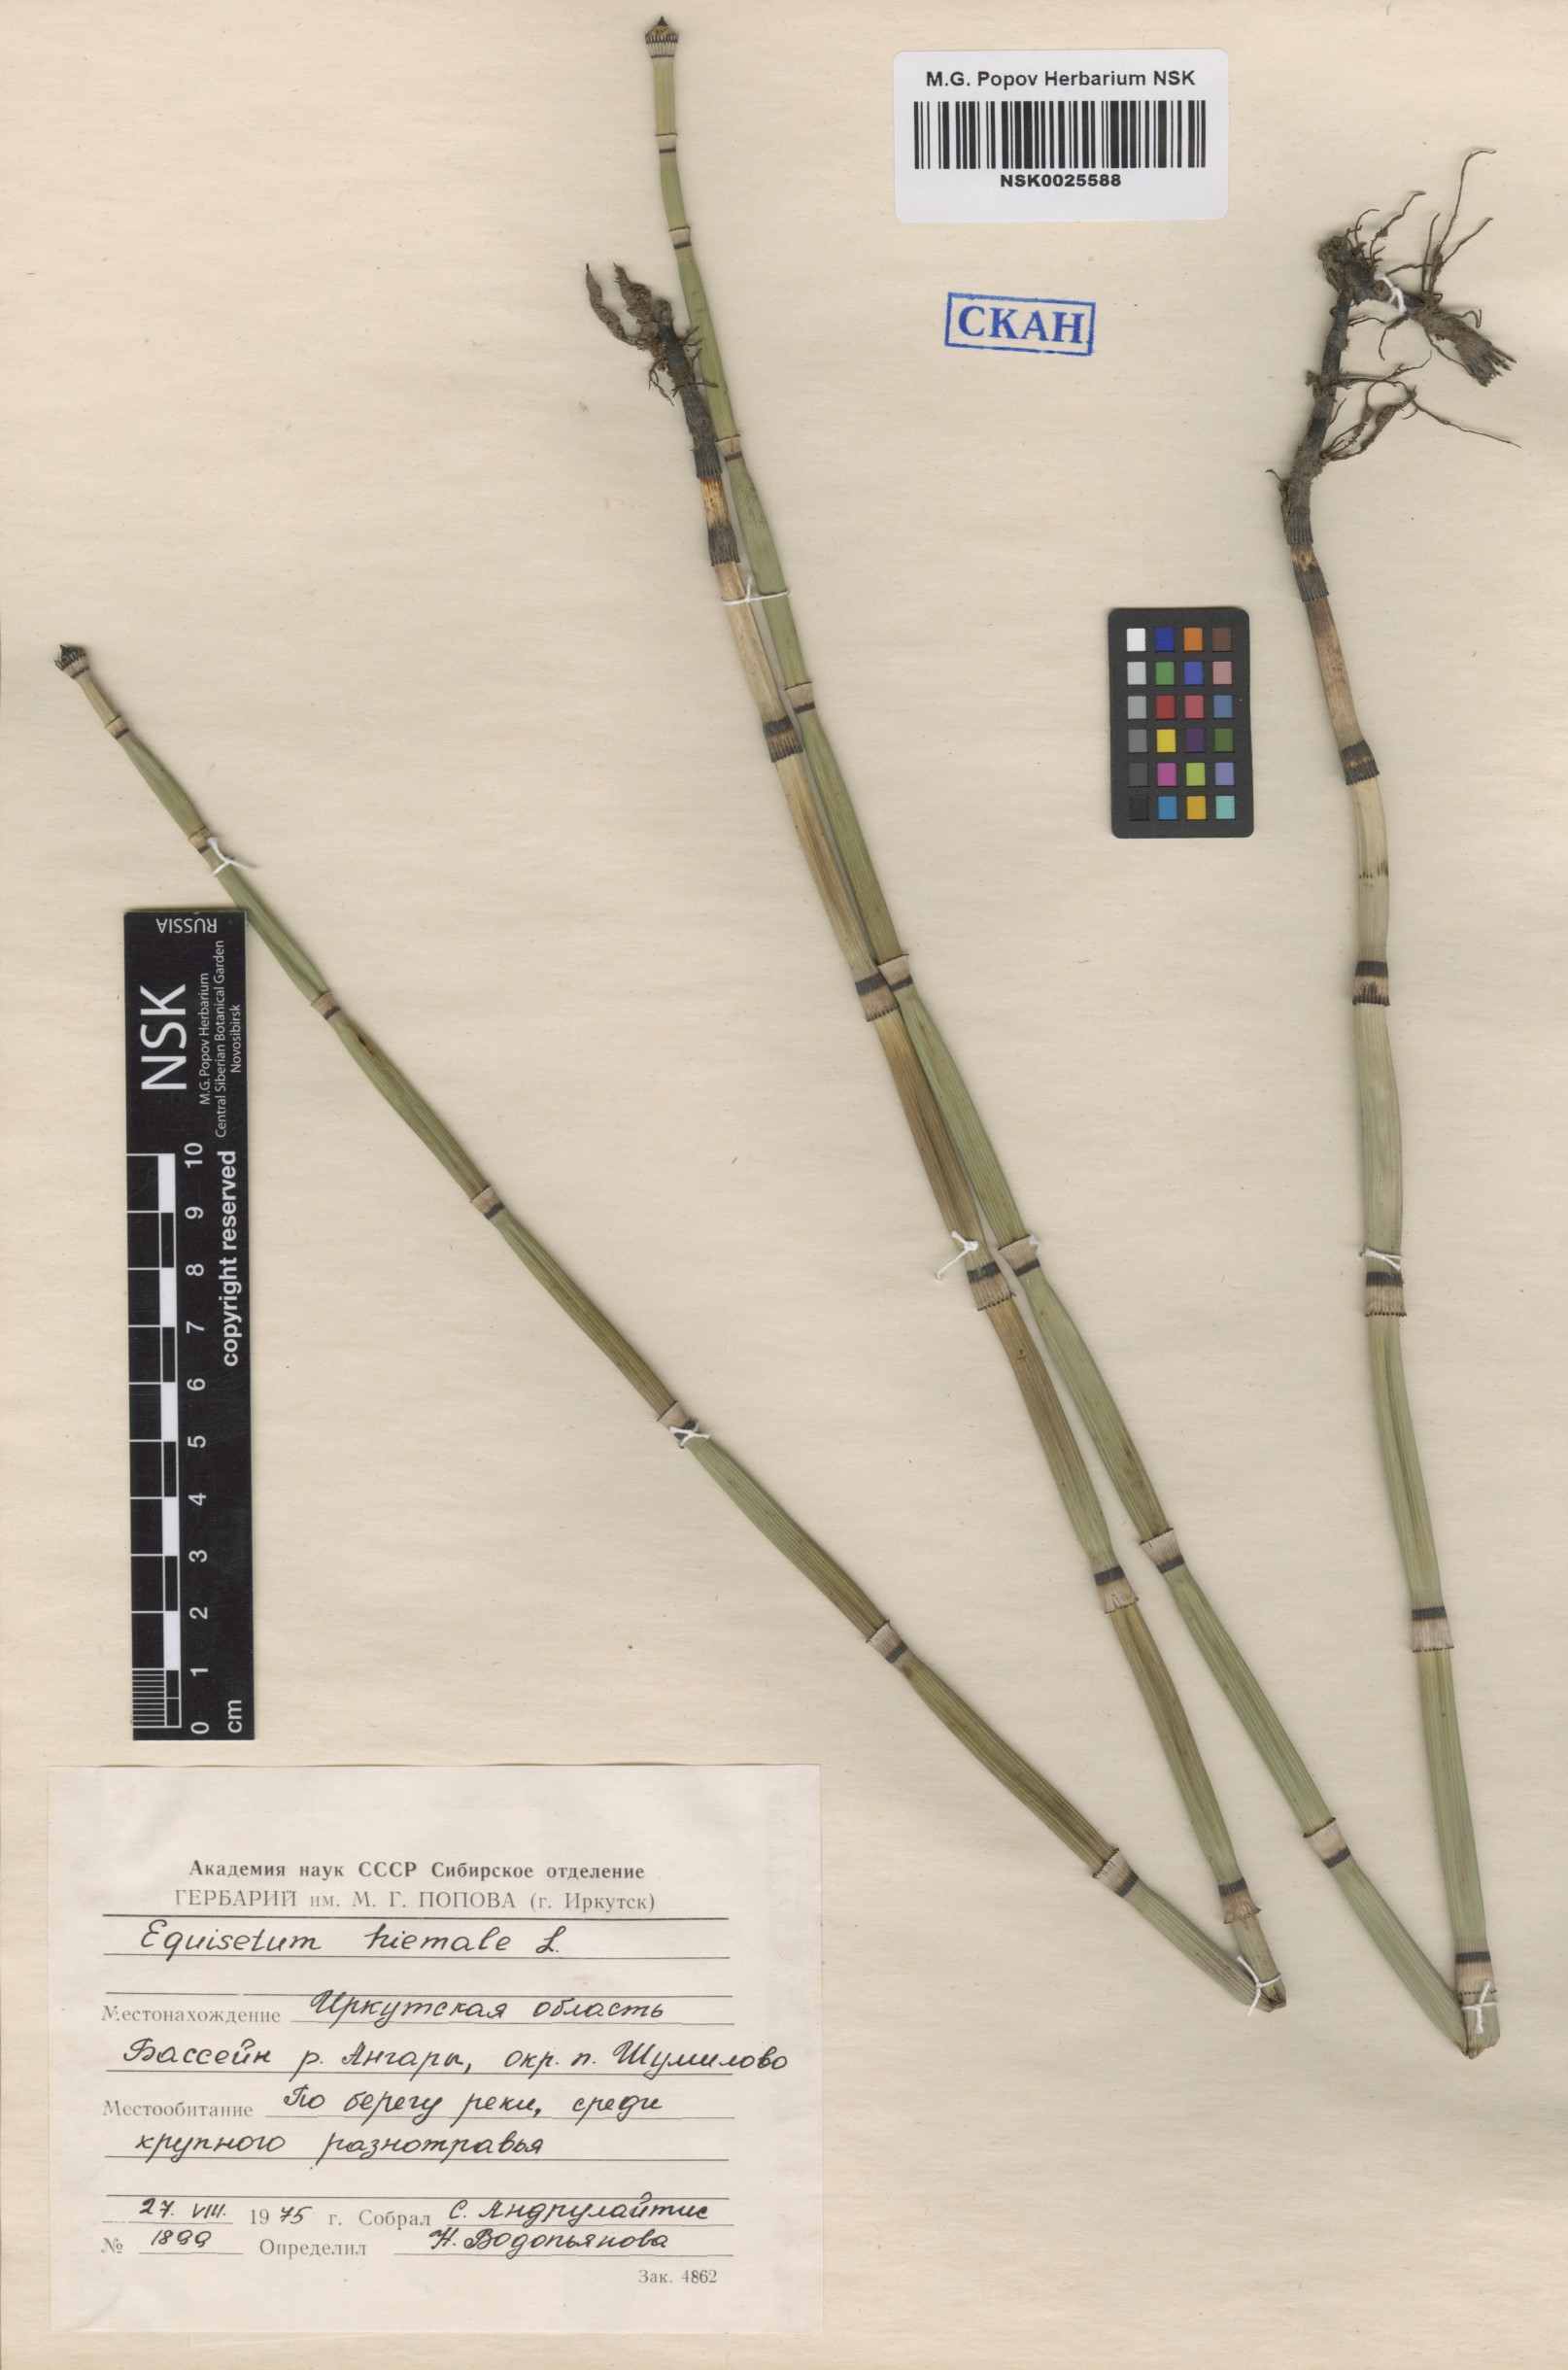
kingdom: Plantae
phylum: Tracheophyta
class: Polypodiopsida
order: Equisetales
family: Equisetaceae
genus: Equisetum
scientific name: Equisetum hyemale
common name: Rough horsetail
